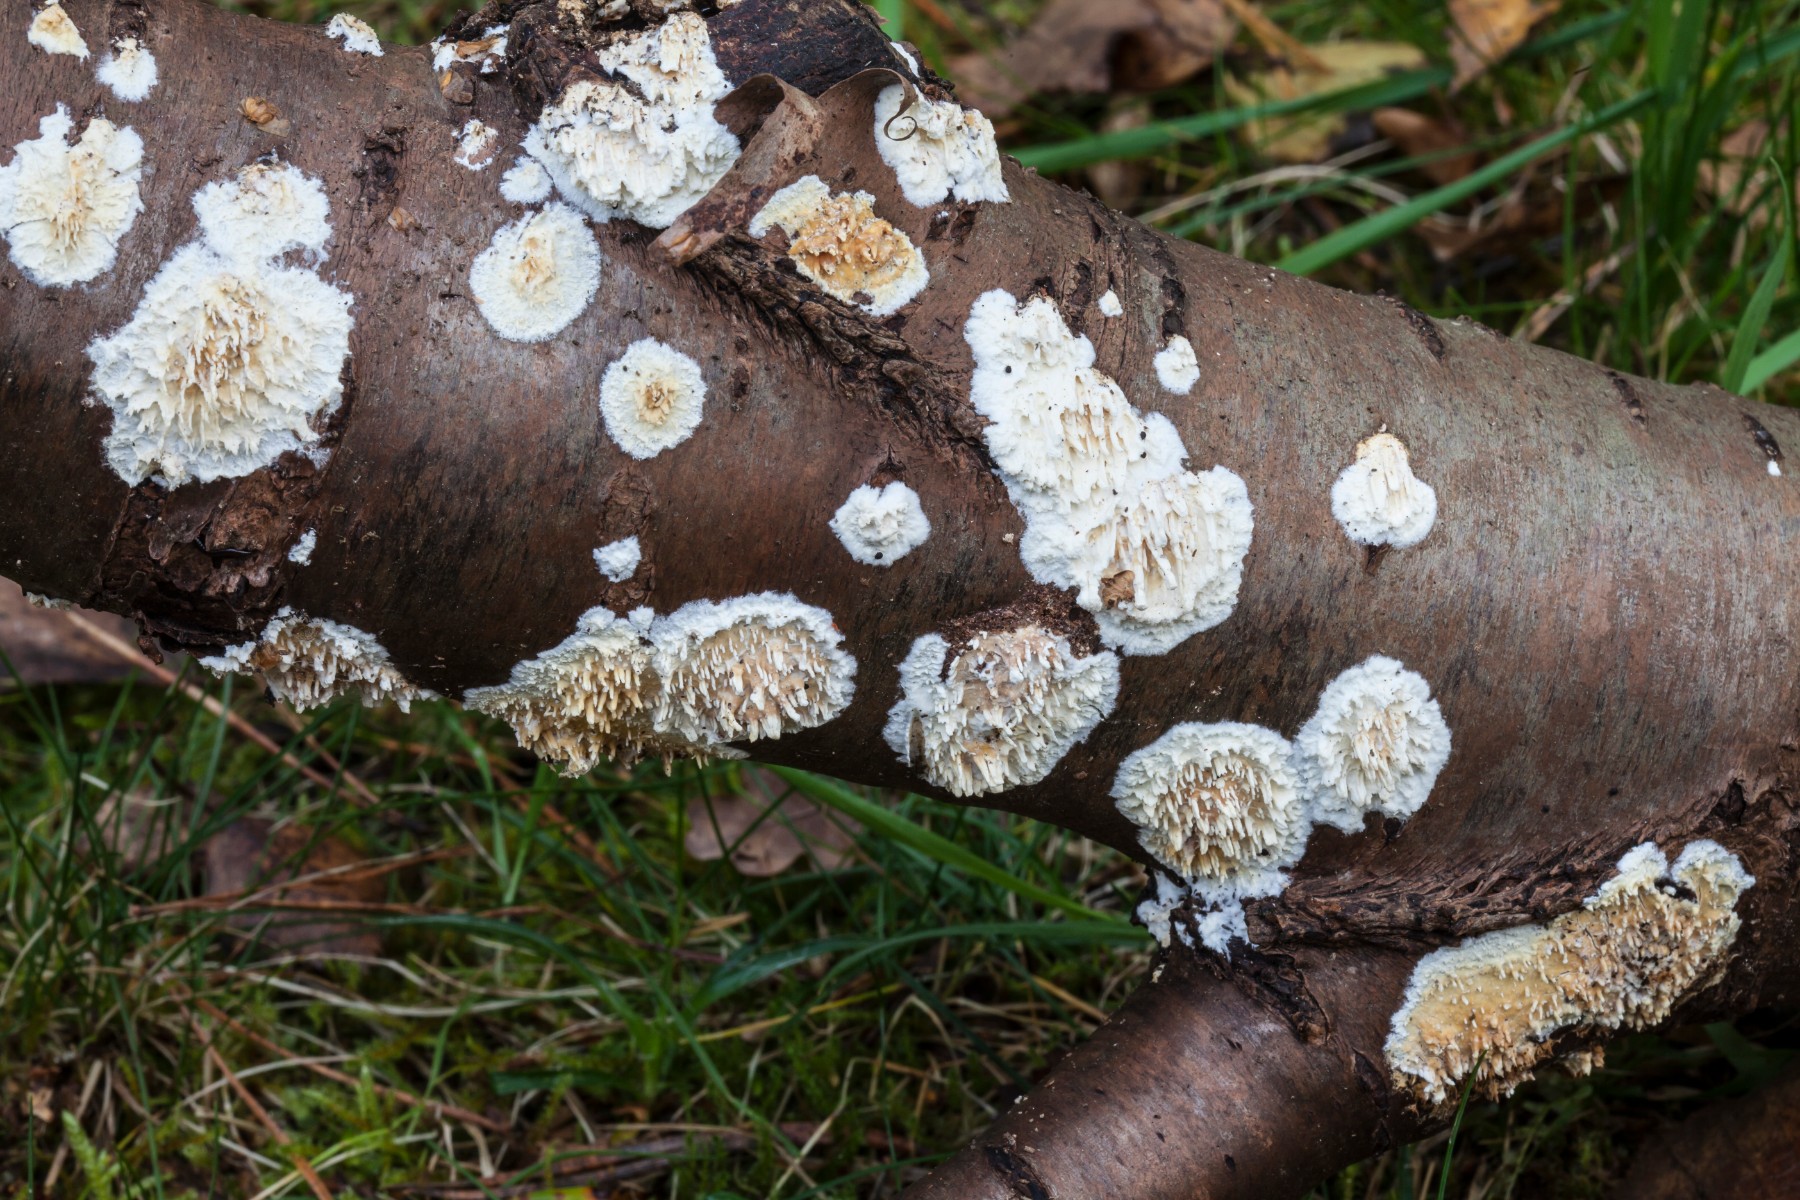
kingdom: Fungi
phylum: Basidiomycota
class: Agaricomycetes
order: Hymenochaetales
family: Schizoporaceae
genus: Xylodon
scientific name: Xylodon radula
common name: grovtandet kalkskind
